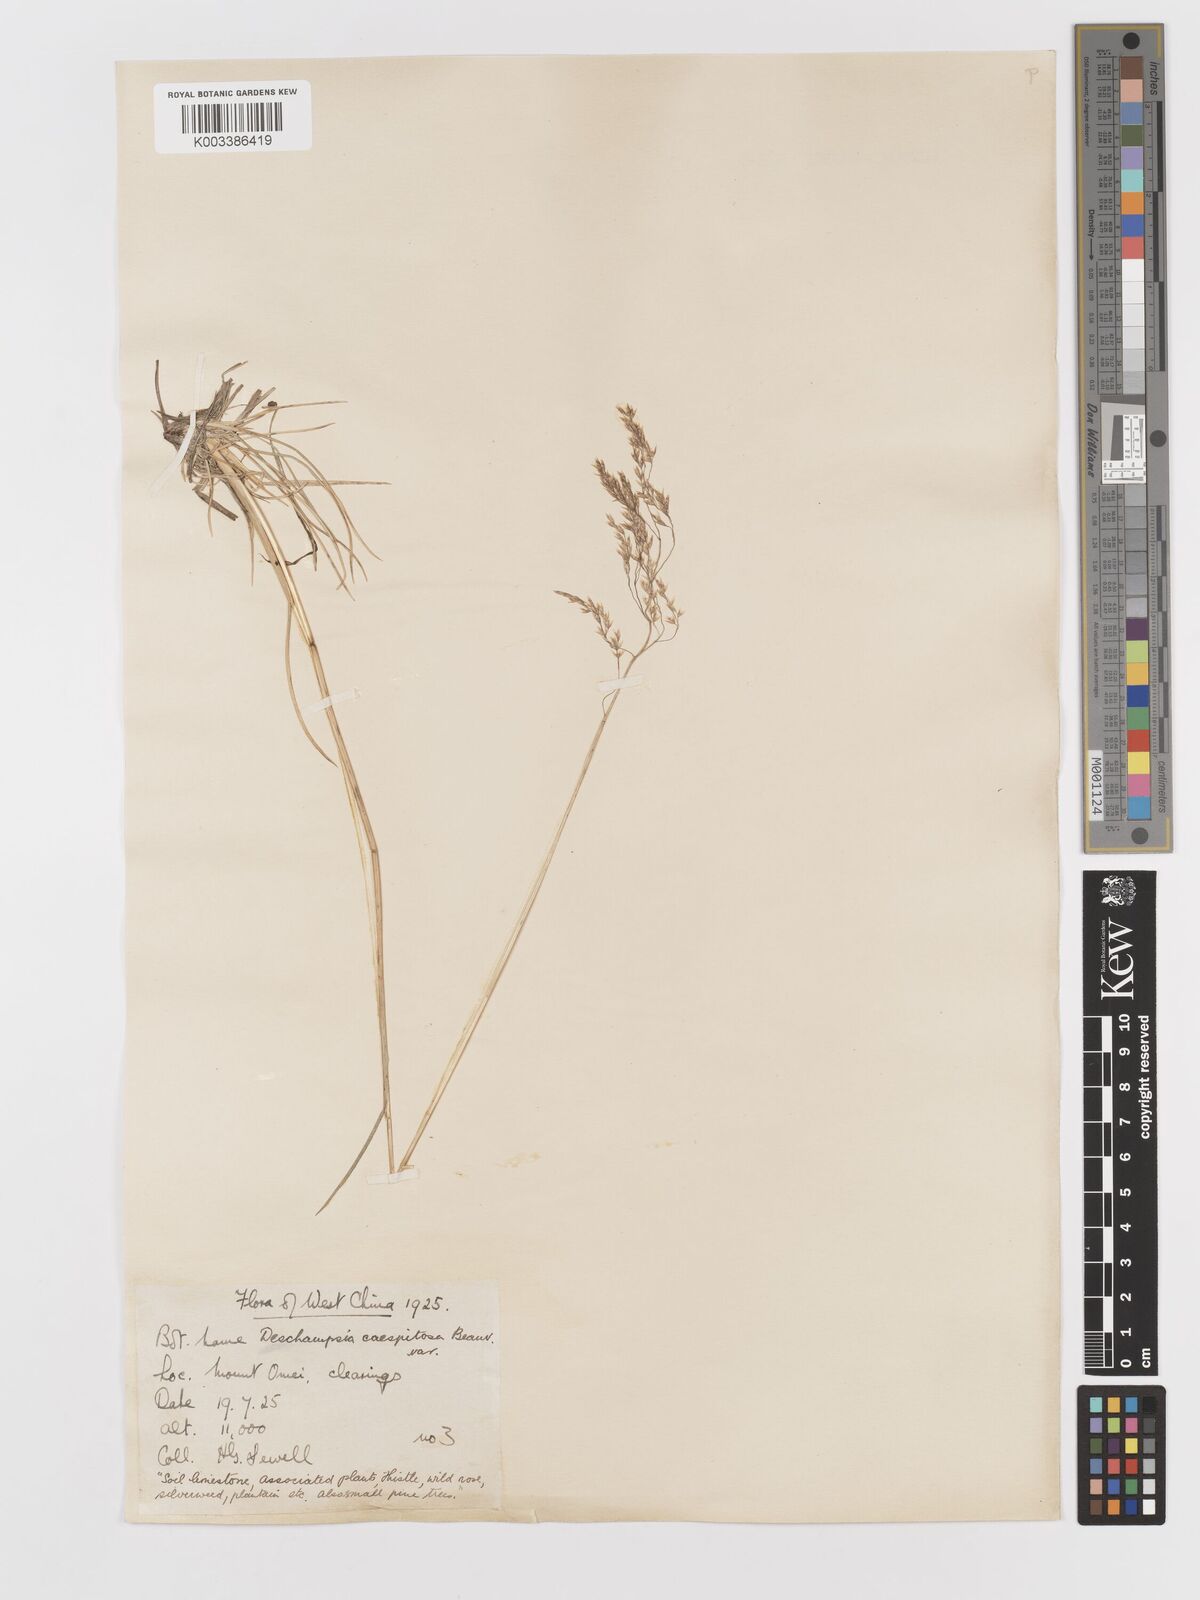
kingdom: Plantae
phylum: Tracheophyta
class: Liliopsida
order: Poales
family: Poaceae
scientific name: Poaceae
